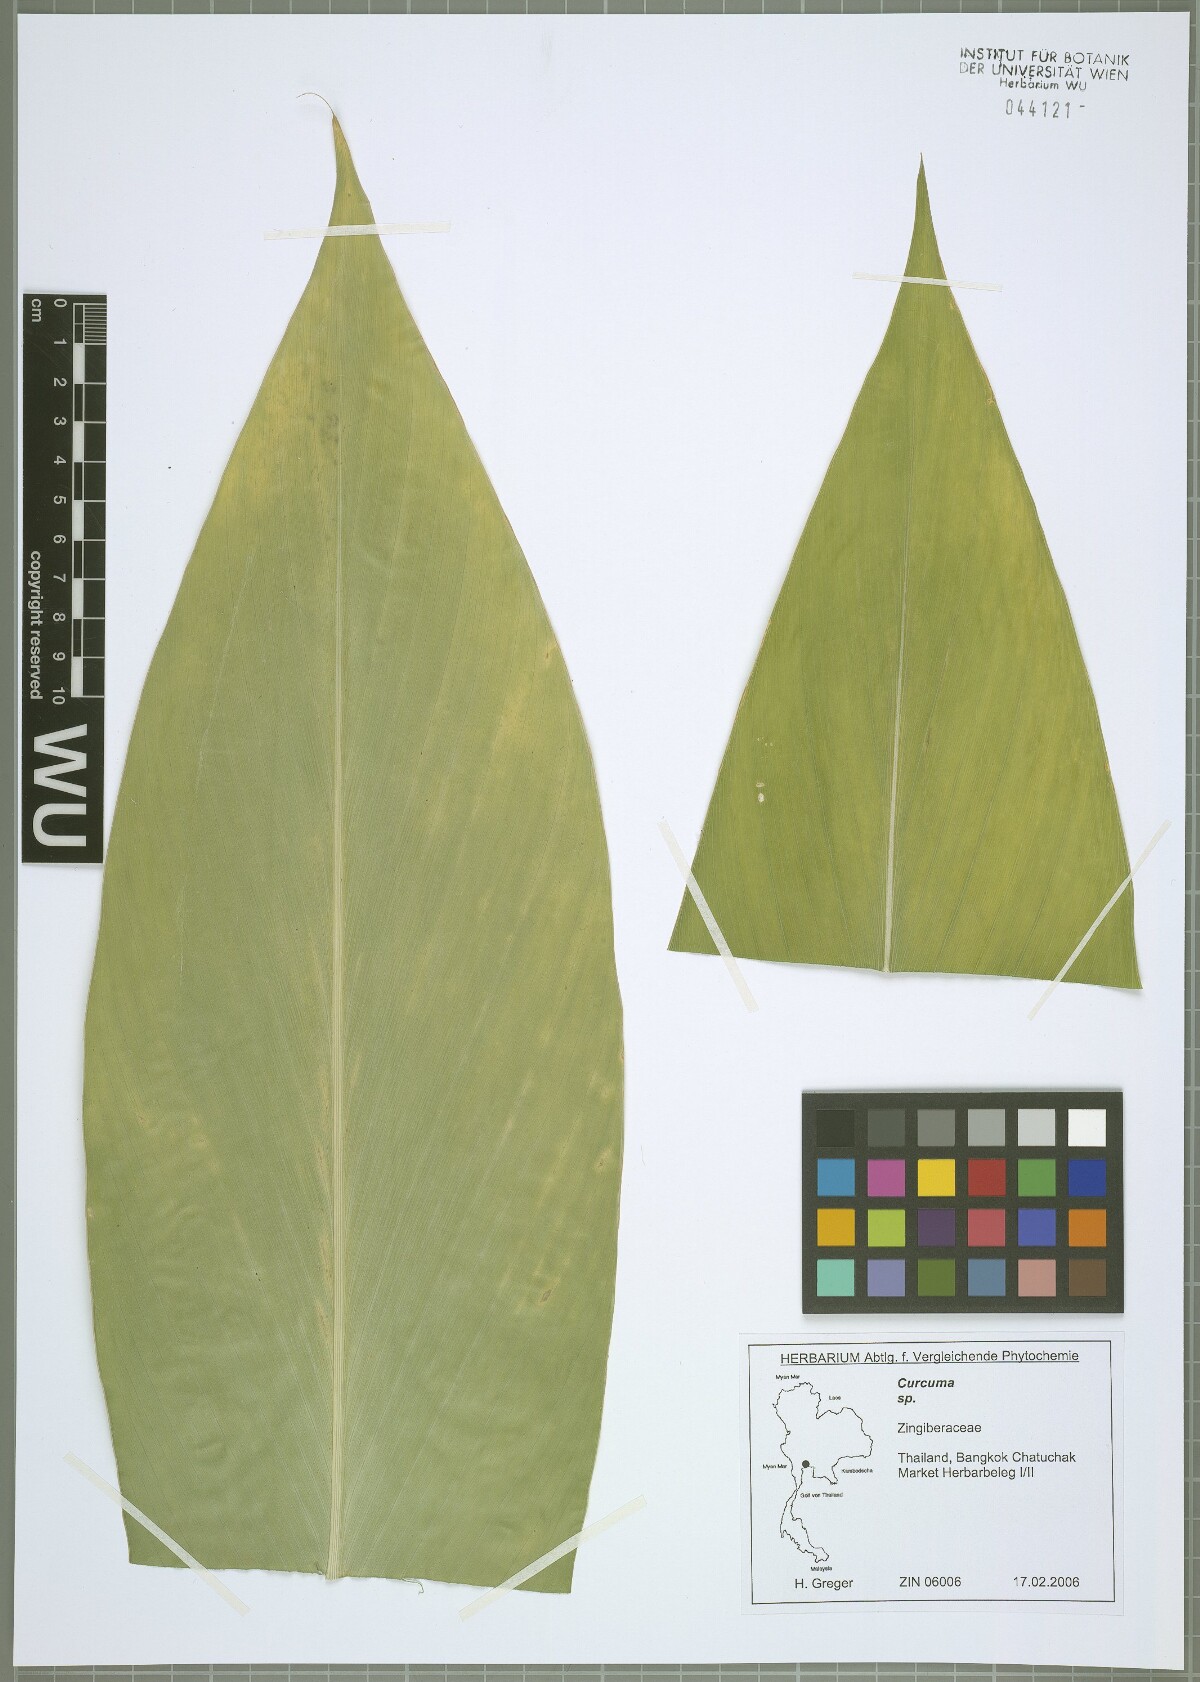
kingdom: Plantae
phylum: Tracheophyta
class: Liliopsida
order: Zingiberales
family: Zingiberaceae
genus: Curcuma
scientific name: Curcuma
